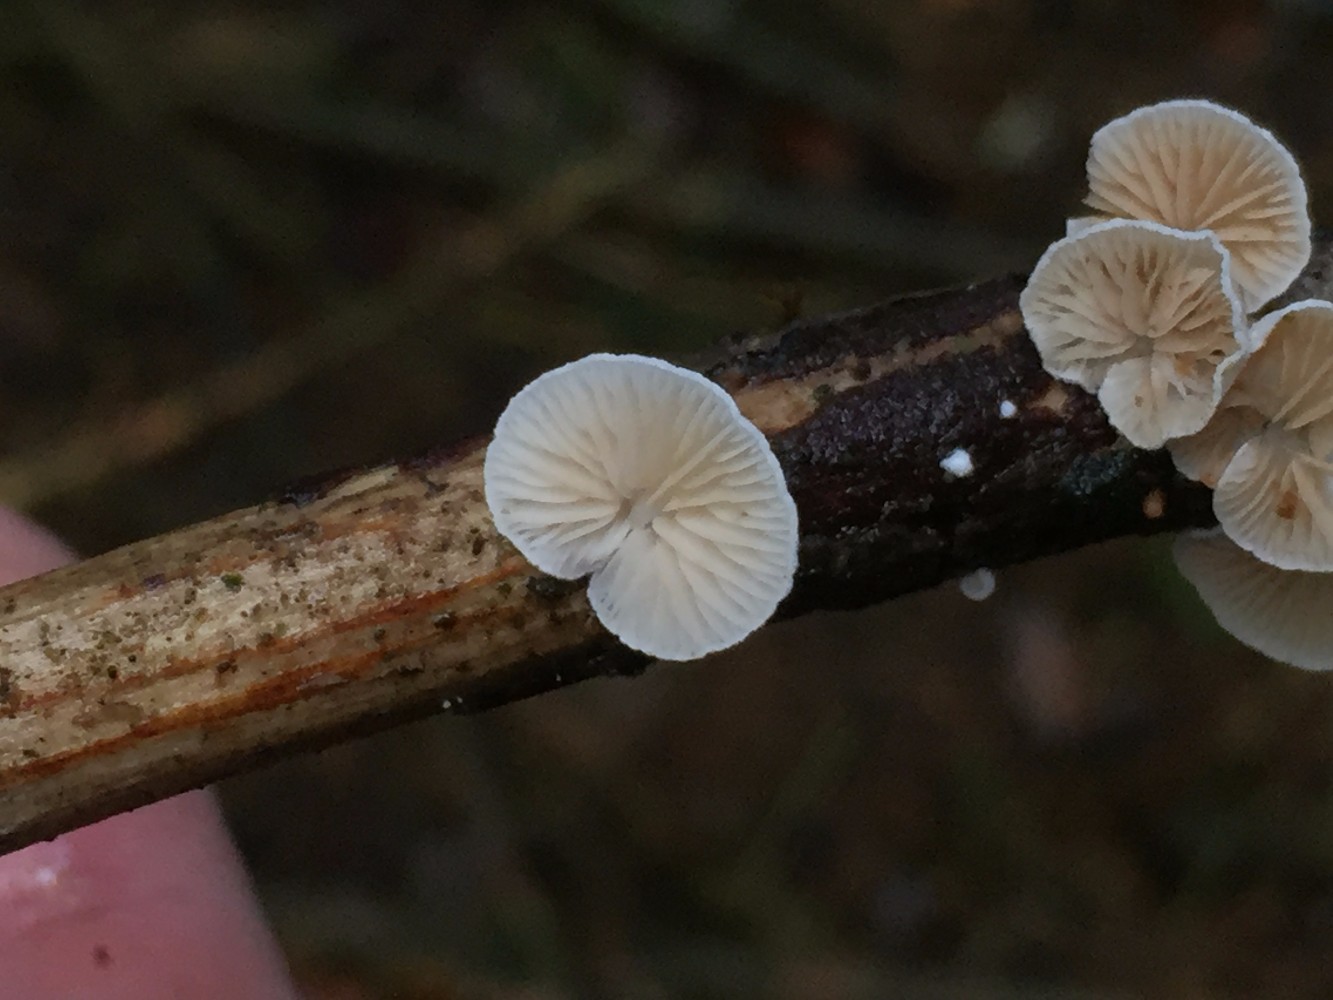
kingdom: Fungi
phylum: Basidiomycota
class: Agaricomycetes
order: Agaricales
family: Crepidotaceae
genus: Crepidotus
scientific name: Crepidotus
